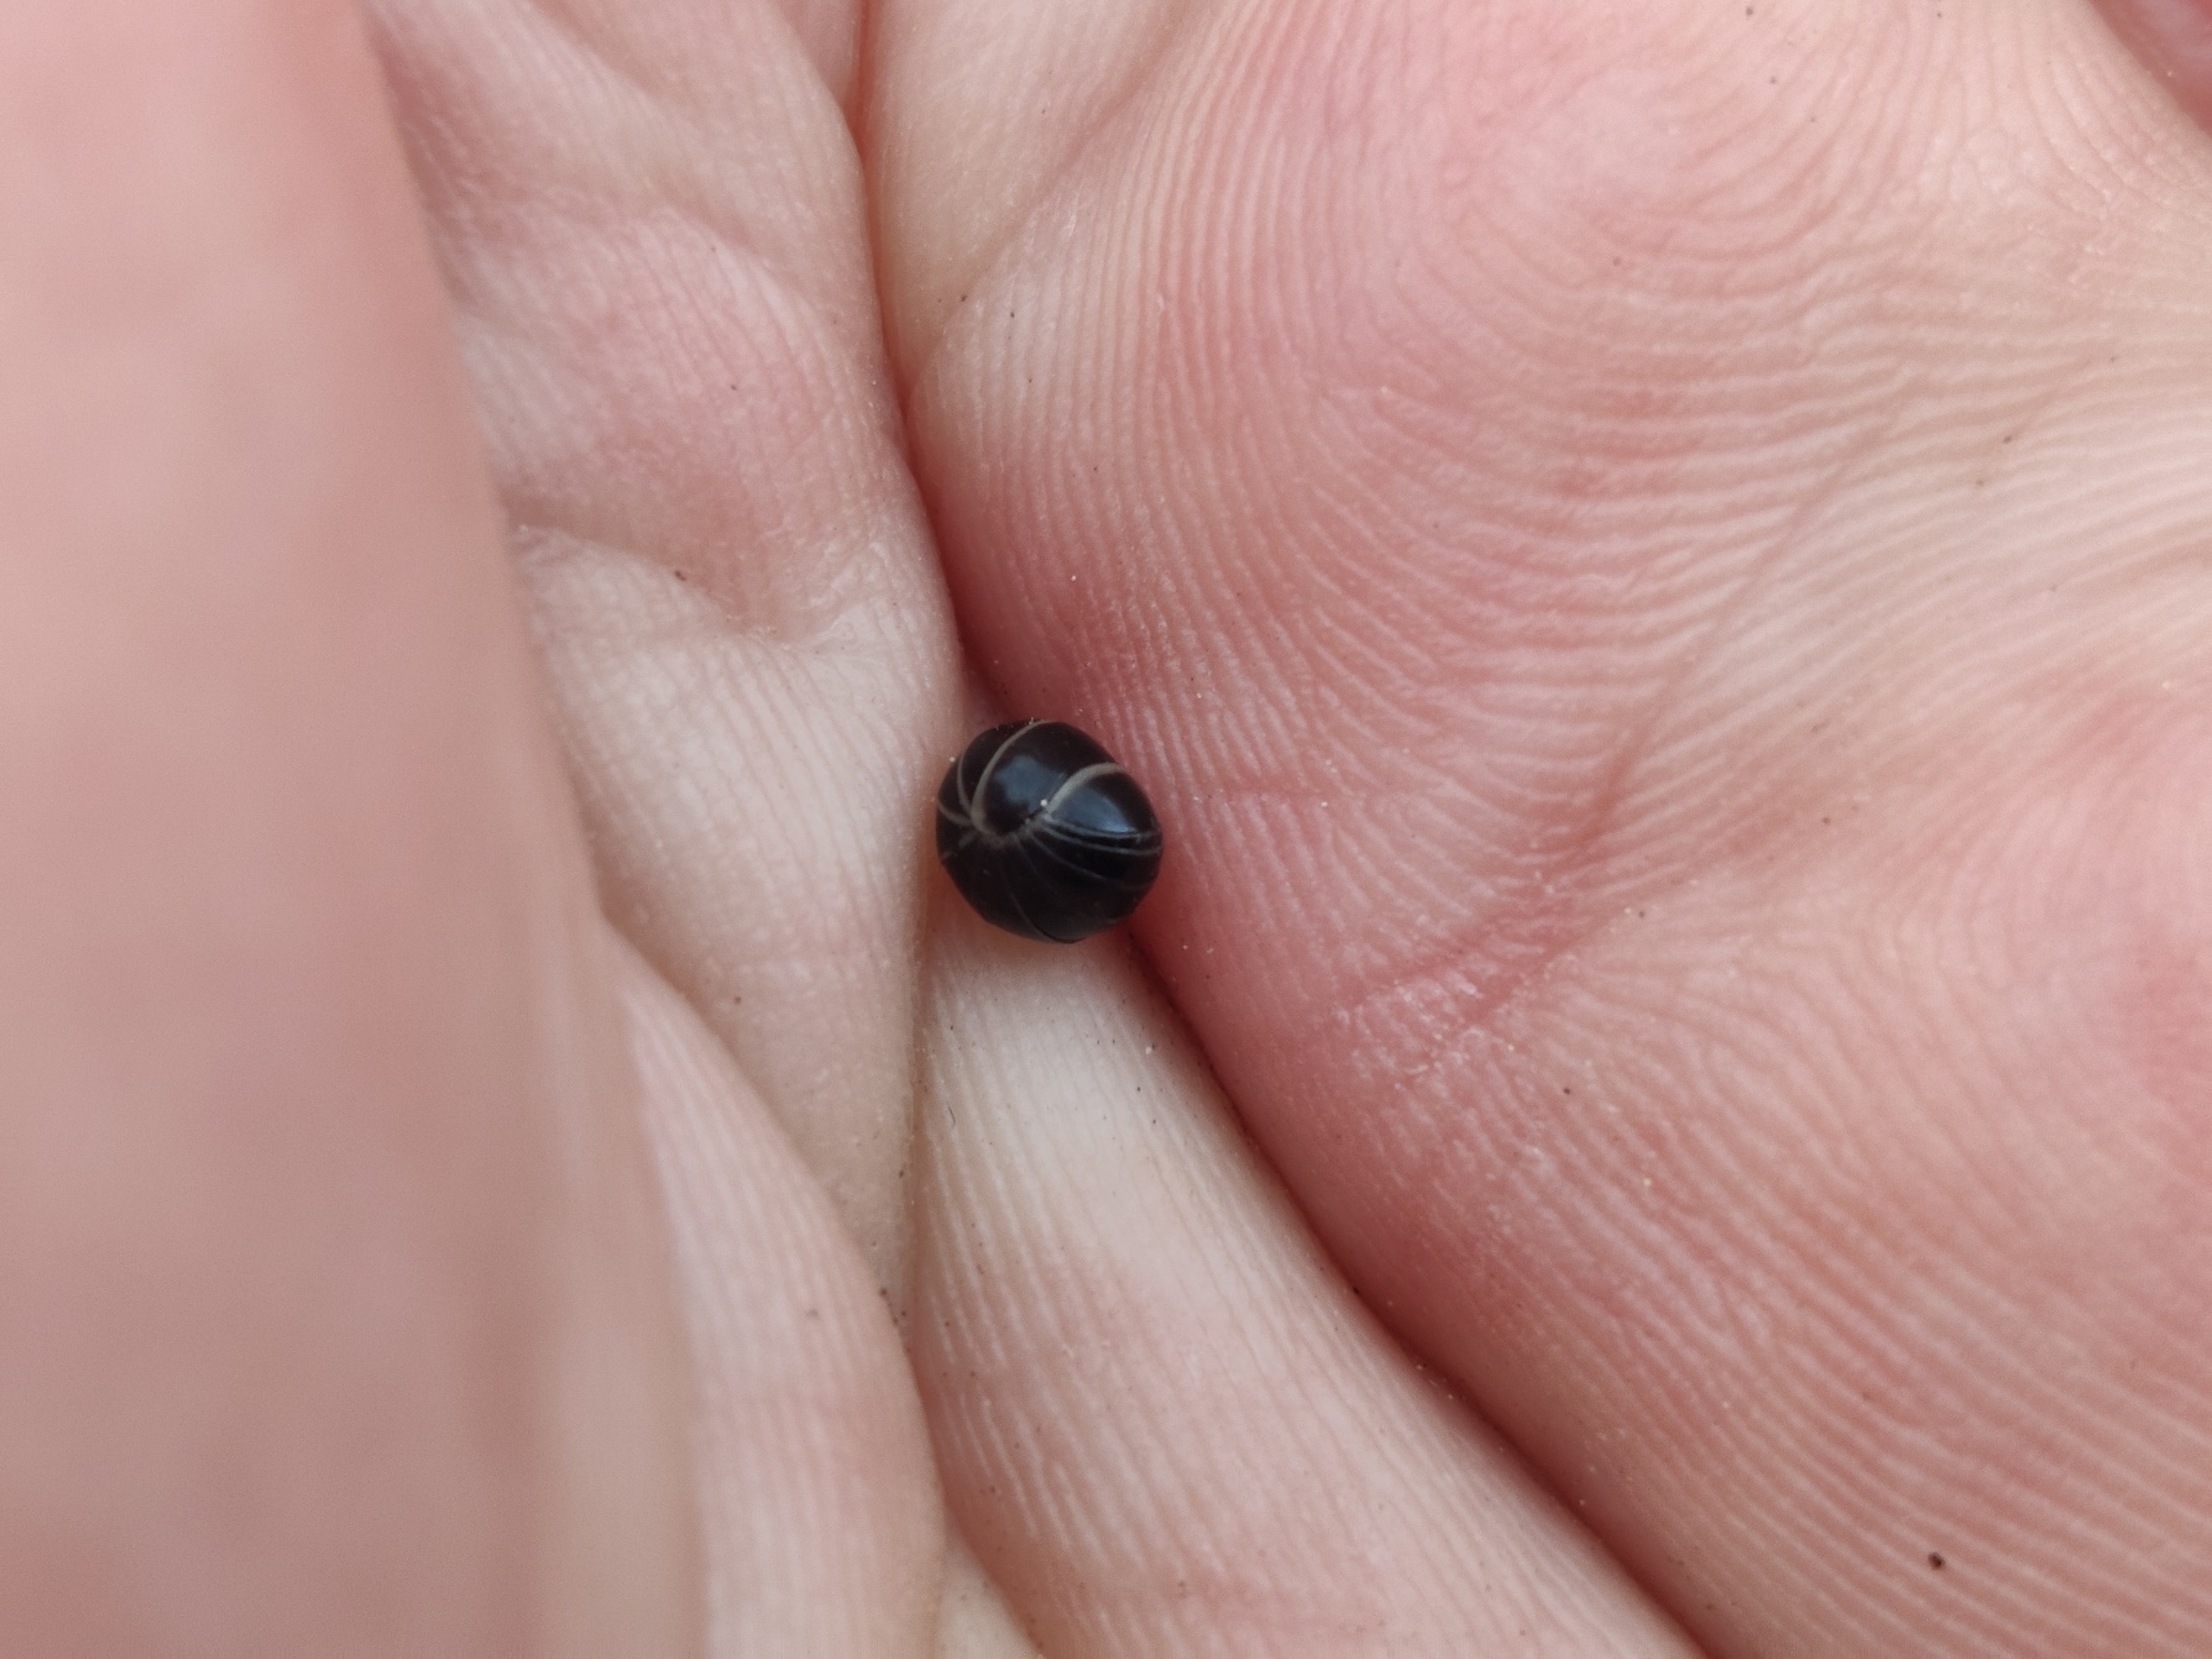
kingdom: Animalia
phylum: Arthropoda
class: Diplopoda
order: Glomerida
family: Glomeridae
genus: Glomeris
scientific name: Glomeris marginata
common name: Kugletusindben
